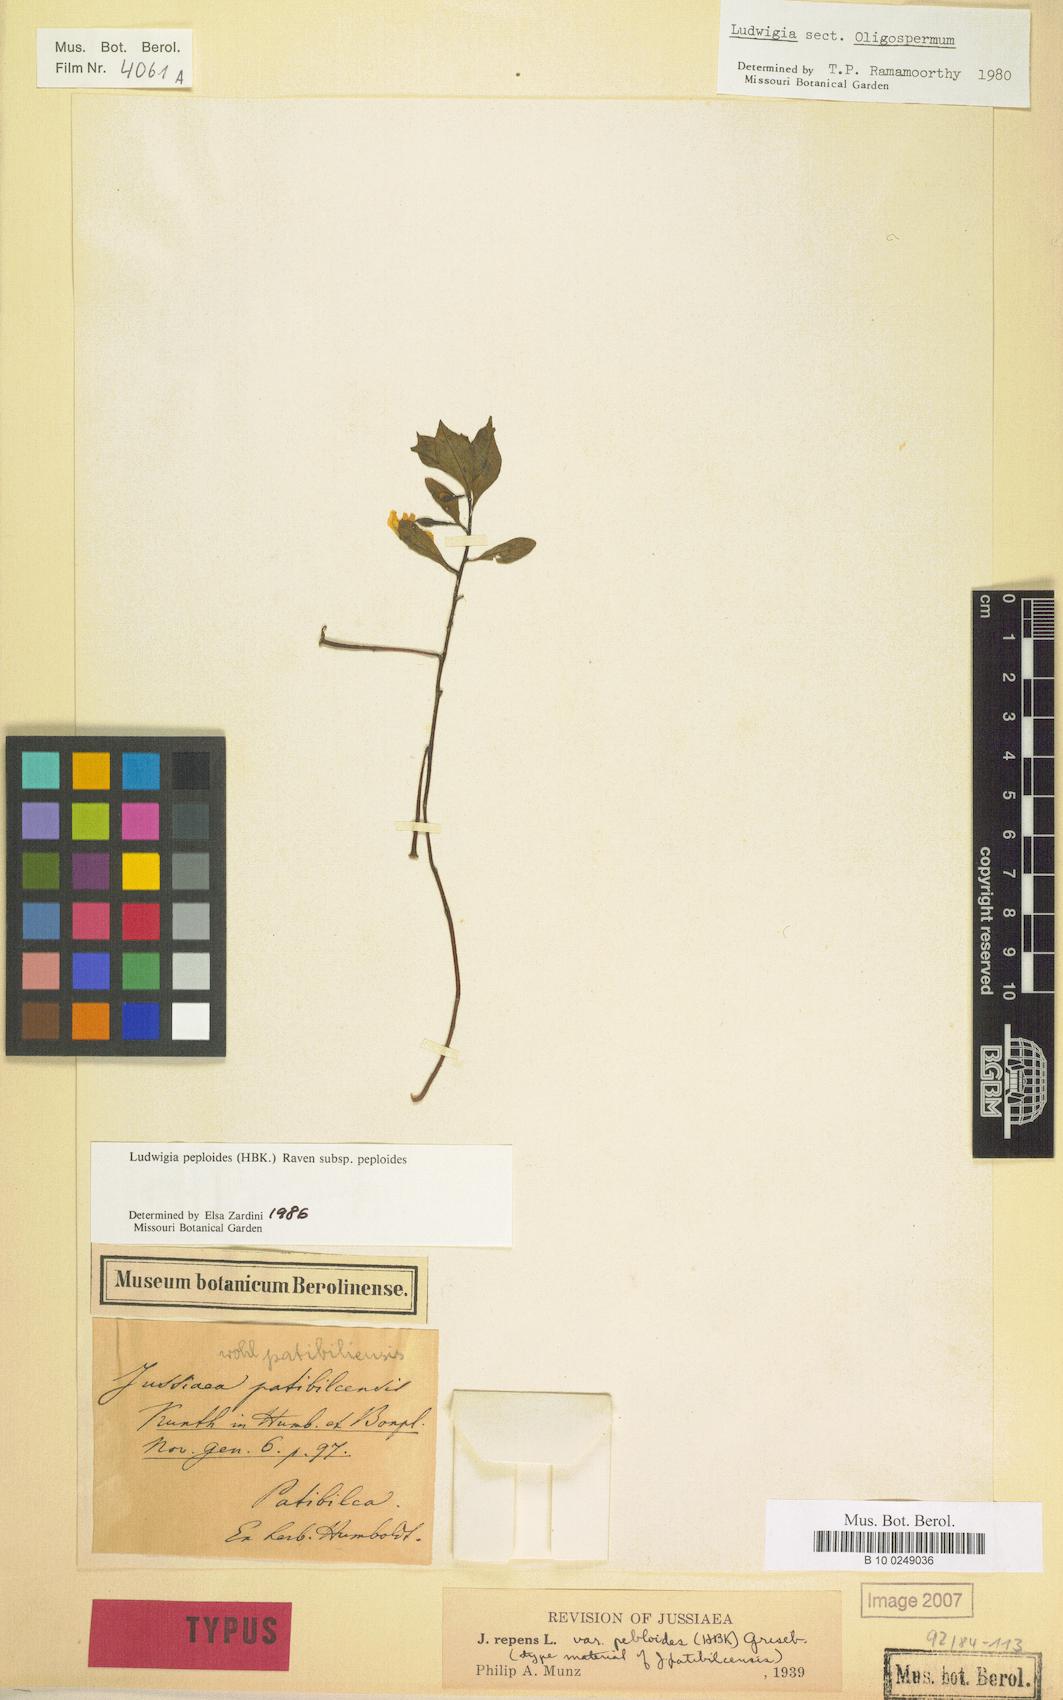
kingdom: Plantae
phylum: Tracheophyta
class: Magnoliopsida
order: Myrtales
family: Onagraceae
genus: Ludwigia
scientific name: Ludwigia peploides
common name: Floating primrose-willow
